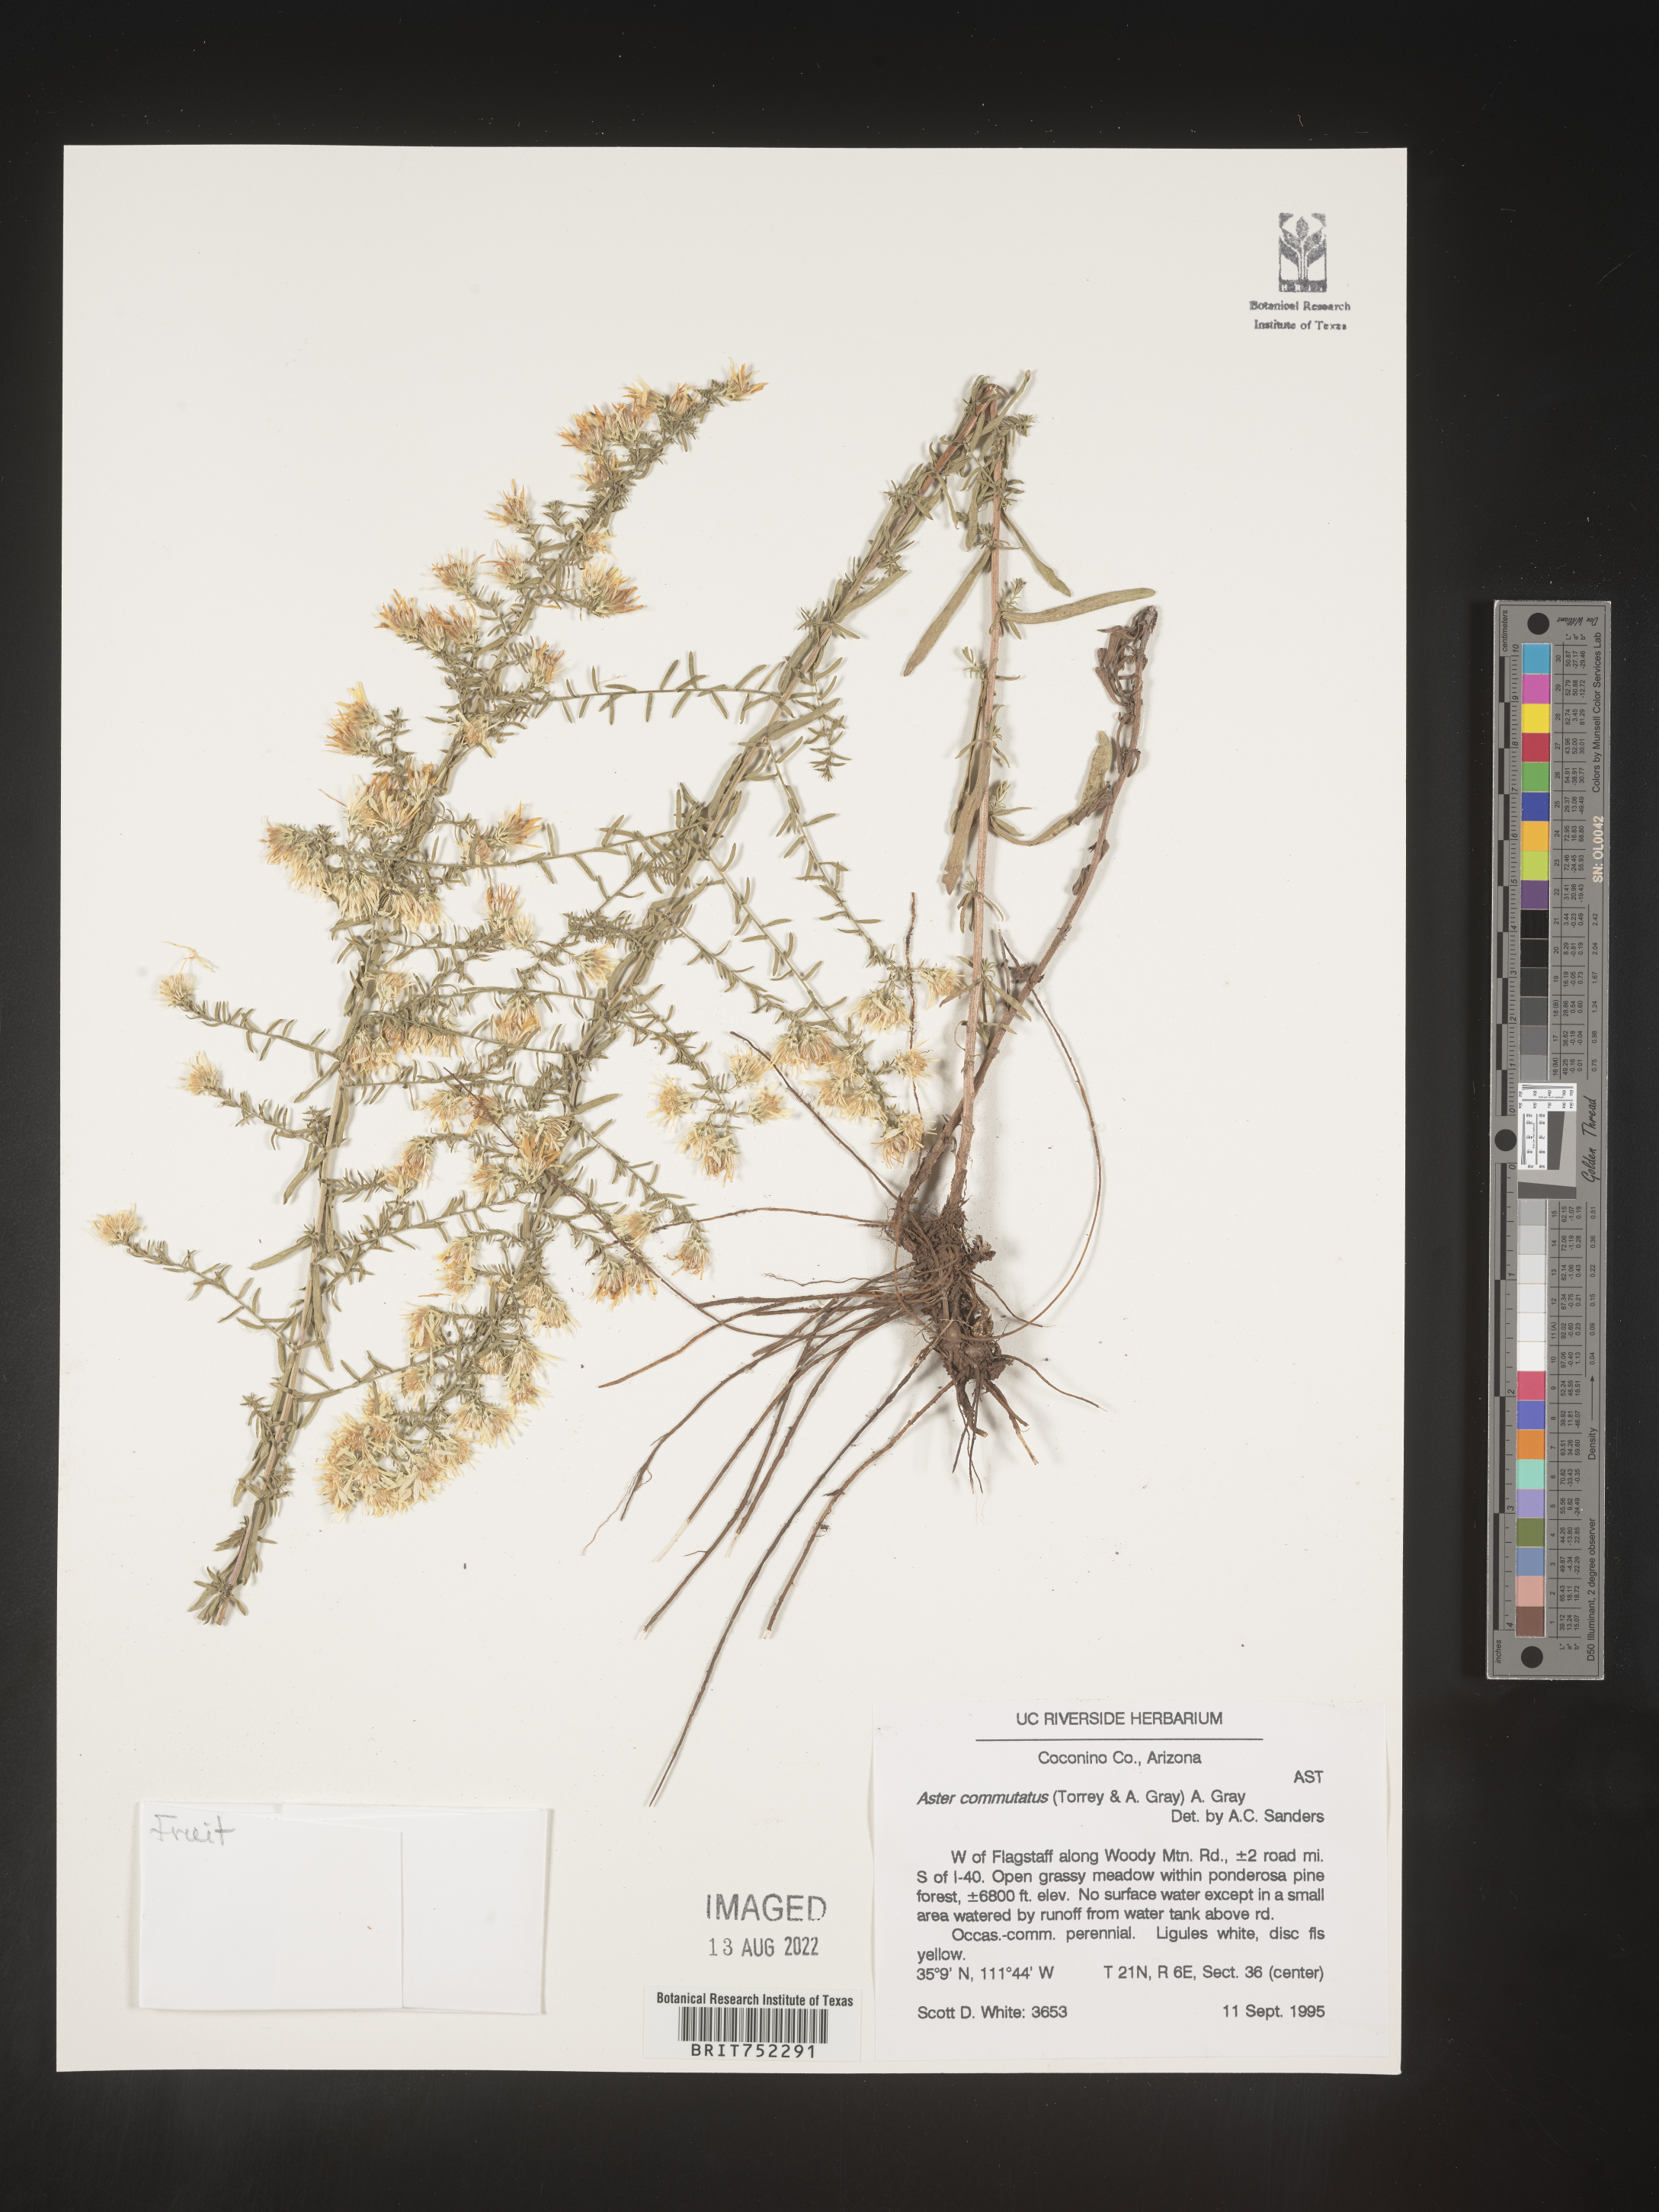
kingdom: Plantae
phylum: Tracheophyta
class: Magnoliopsida
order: Asterales
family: Asteraceae
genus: Symphyotrichum
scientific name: Symphyotrichum falcatum
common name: Creeping white prairie aster
